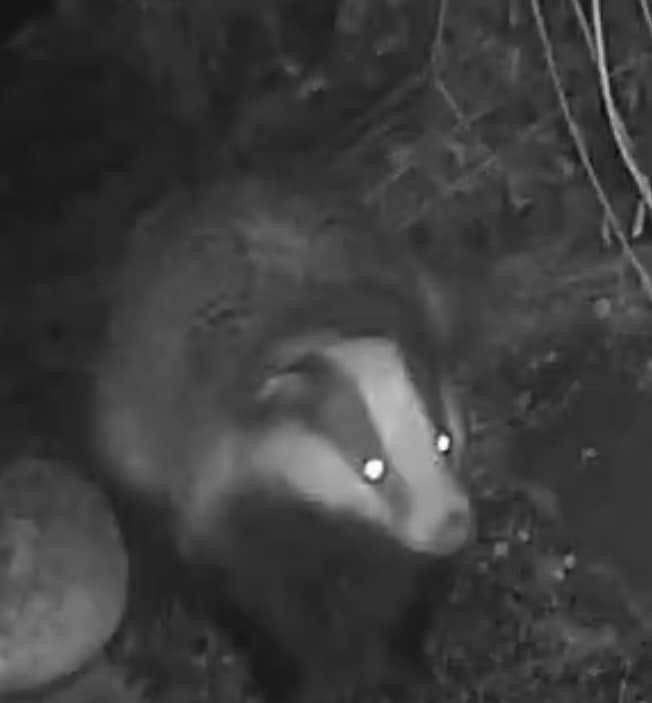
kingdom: Animalia
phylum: Chordata
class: Mammalia
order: Carnivora
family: Mustelidae
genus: Meles
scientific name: Meles meles
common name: Eurasian badger
